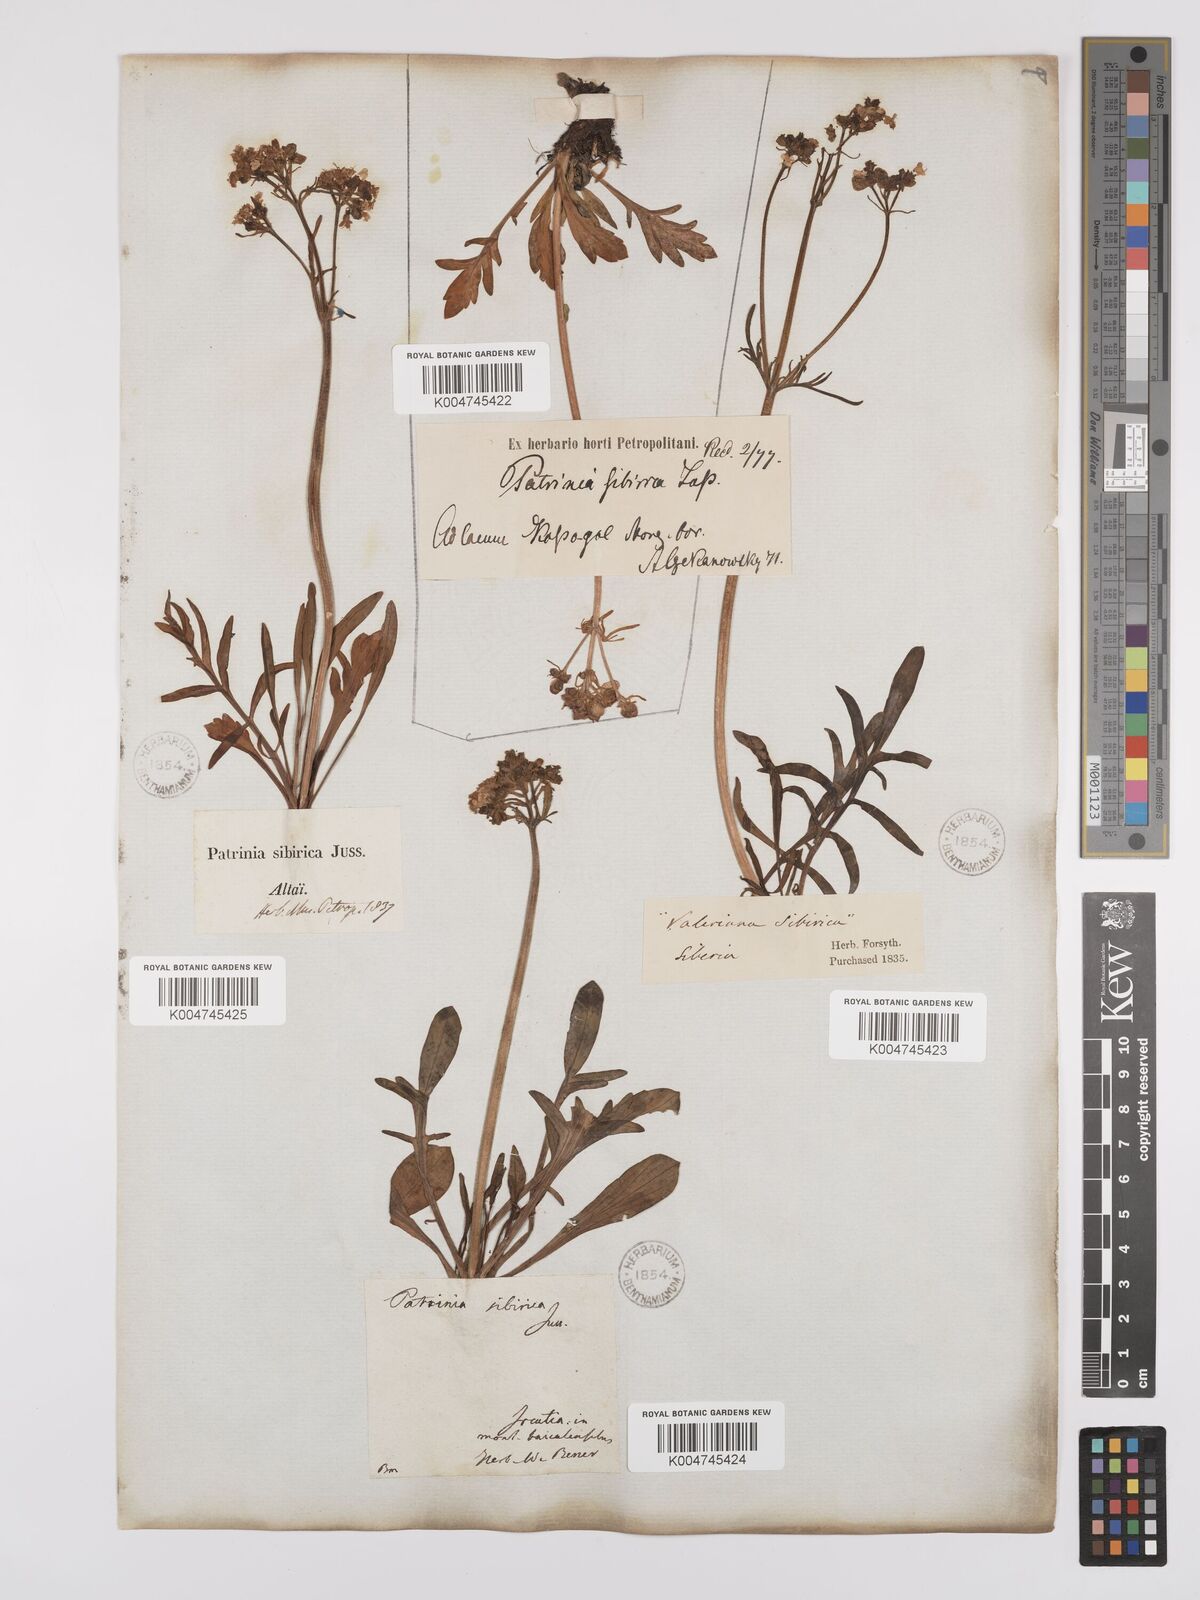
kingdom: Plantae
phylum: Tracheophyta
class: Magnoliopsida
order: Dipsacales
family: Caprifoliaceae
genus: Patrinia
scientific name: Patrinia sibirica
